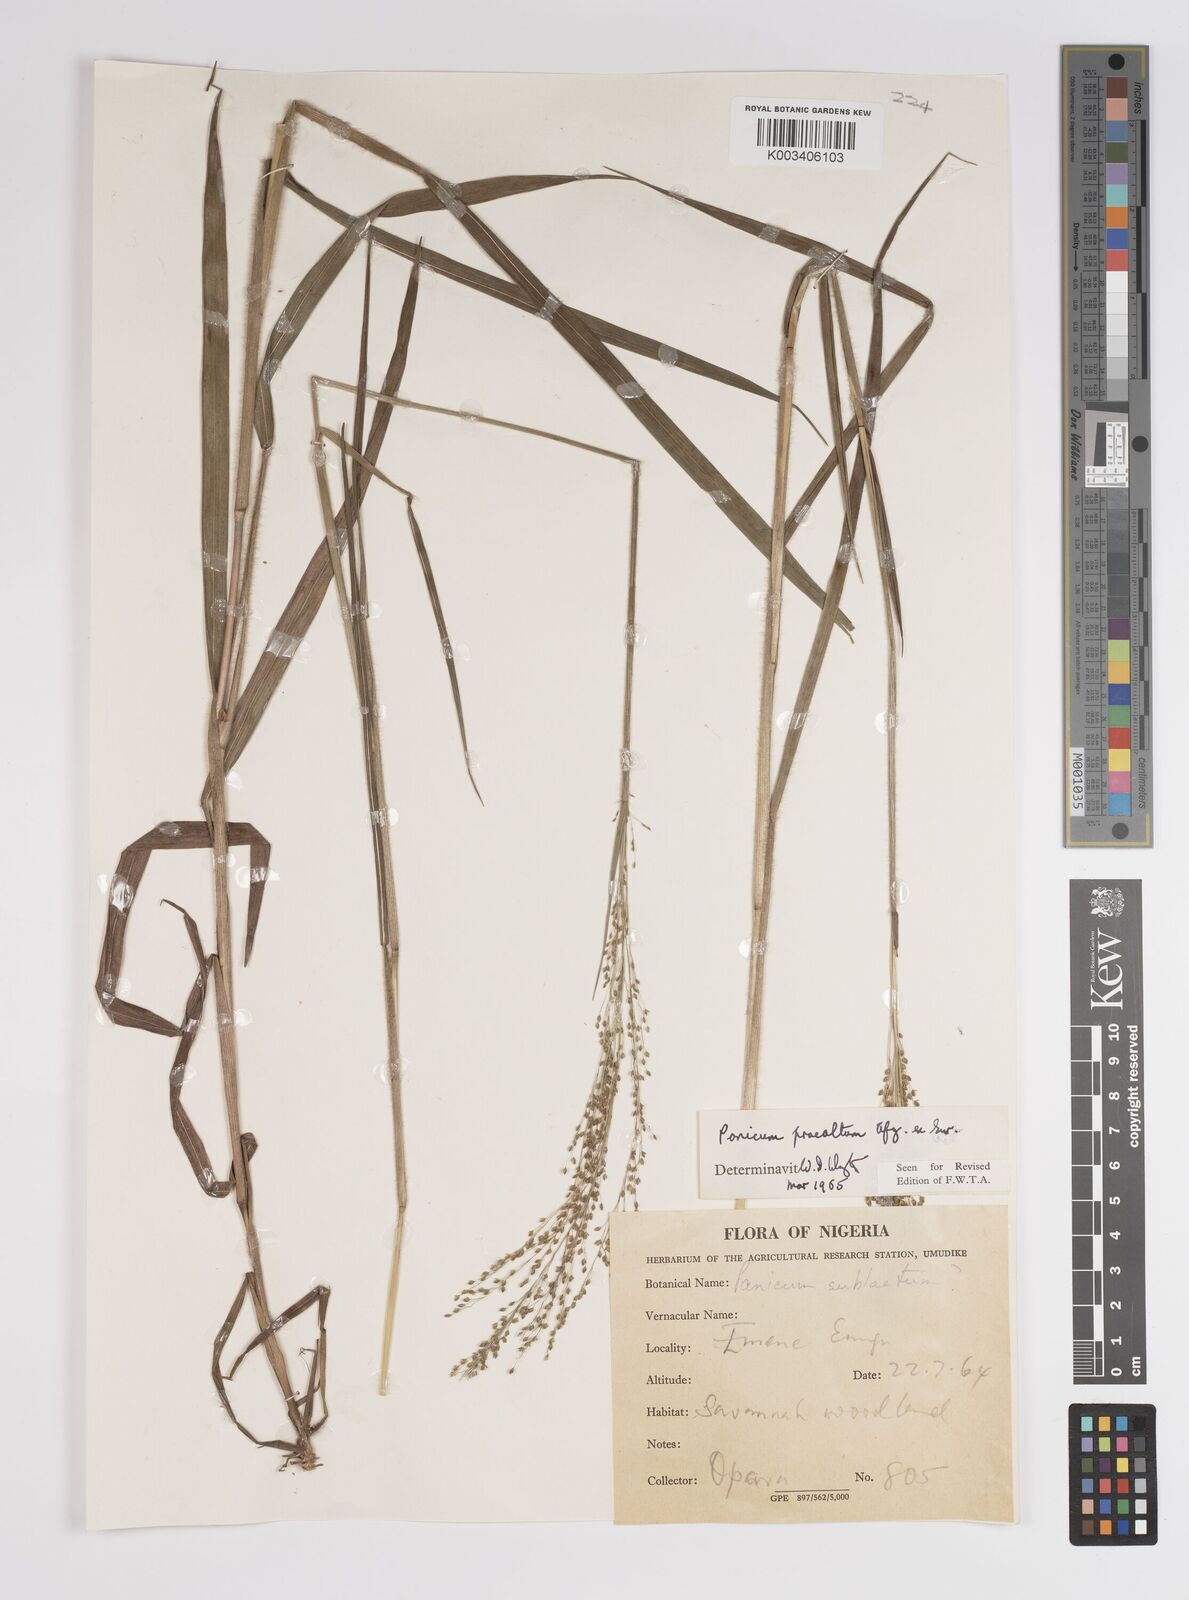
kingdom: Plantae
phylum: Tracheophyta
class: Liliopsida
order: Poales
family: Poaceae
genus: Trichanthecium
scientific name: Trichanthecium praealtum
